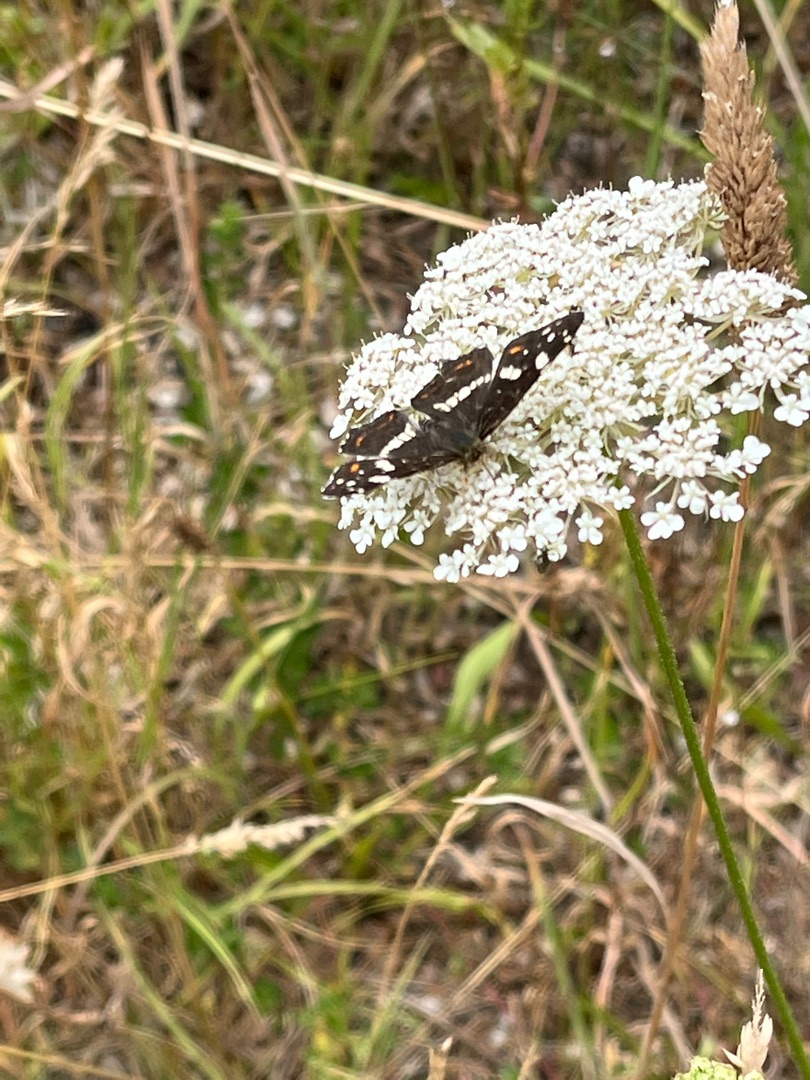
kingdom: Animalia
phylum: Arthropoda
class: Insecta
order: Lepidoptera
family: Nymphalidae
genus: Araschnia
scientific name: Araschnia levana
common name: Nældesommerfugl
